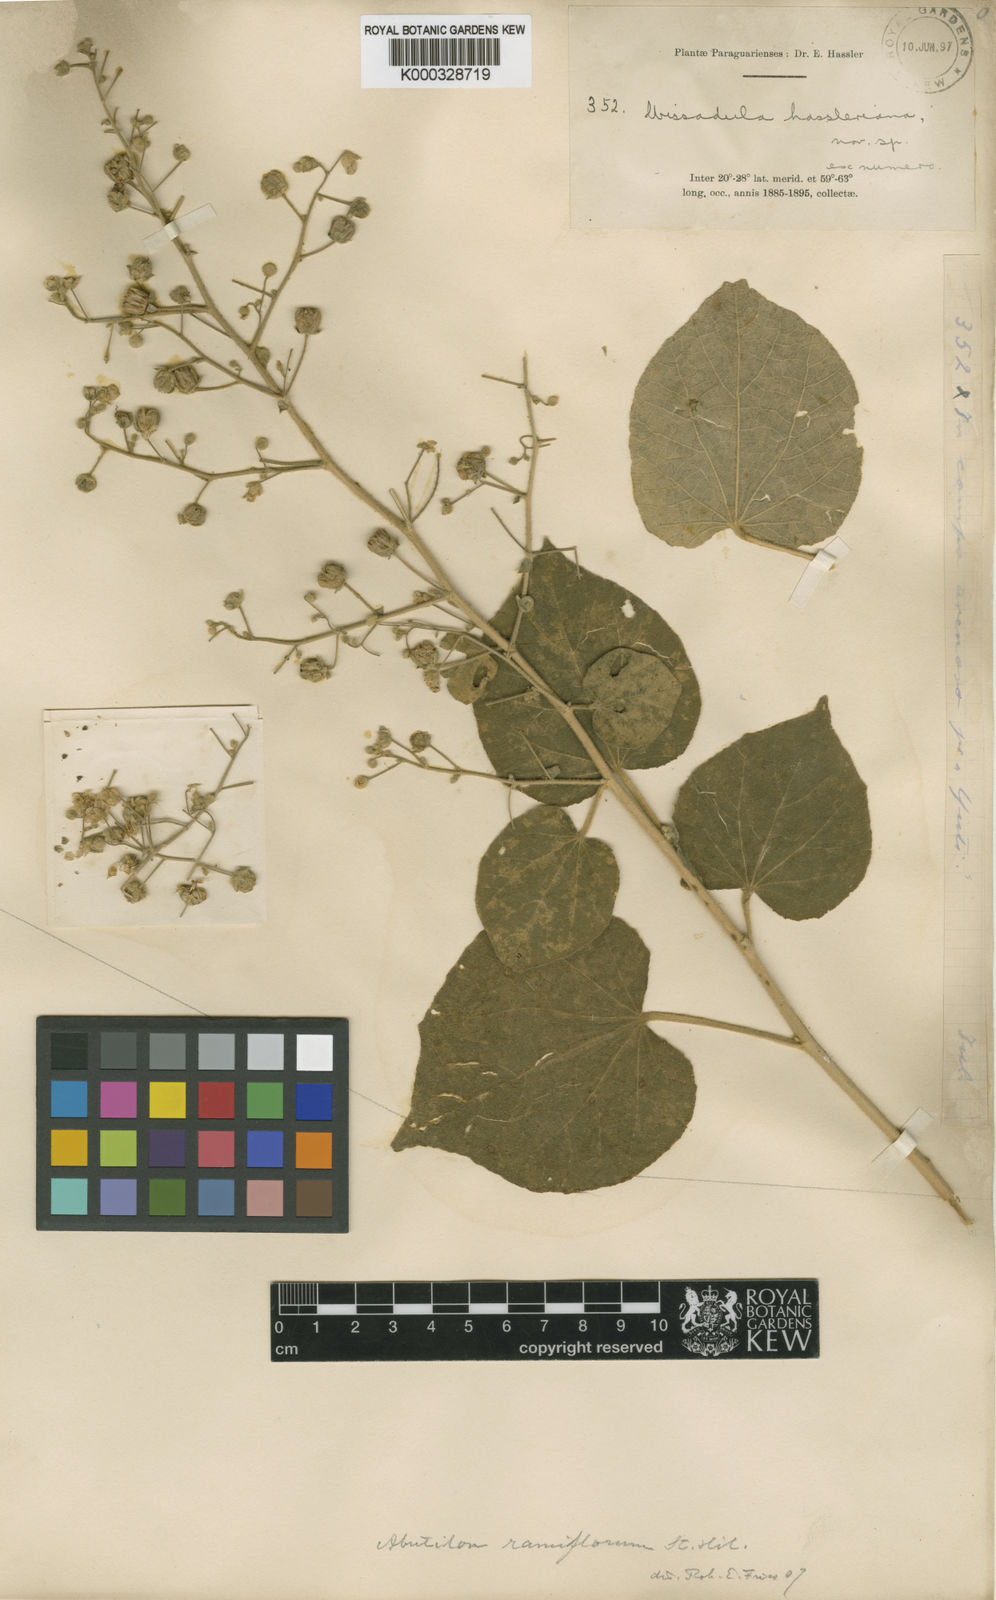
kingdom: Plantae
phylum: Tracheophyta
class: Magnoliopsida
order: Malvales
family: Malvaceae
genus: Abutilon
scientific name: Abutilon ramiflorum
